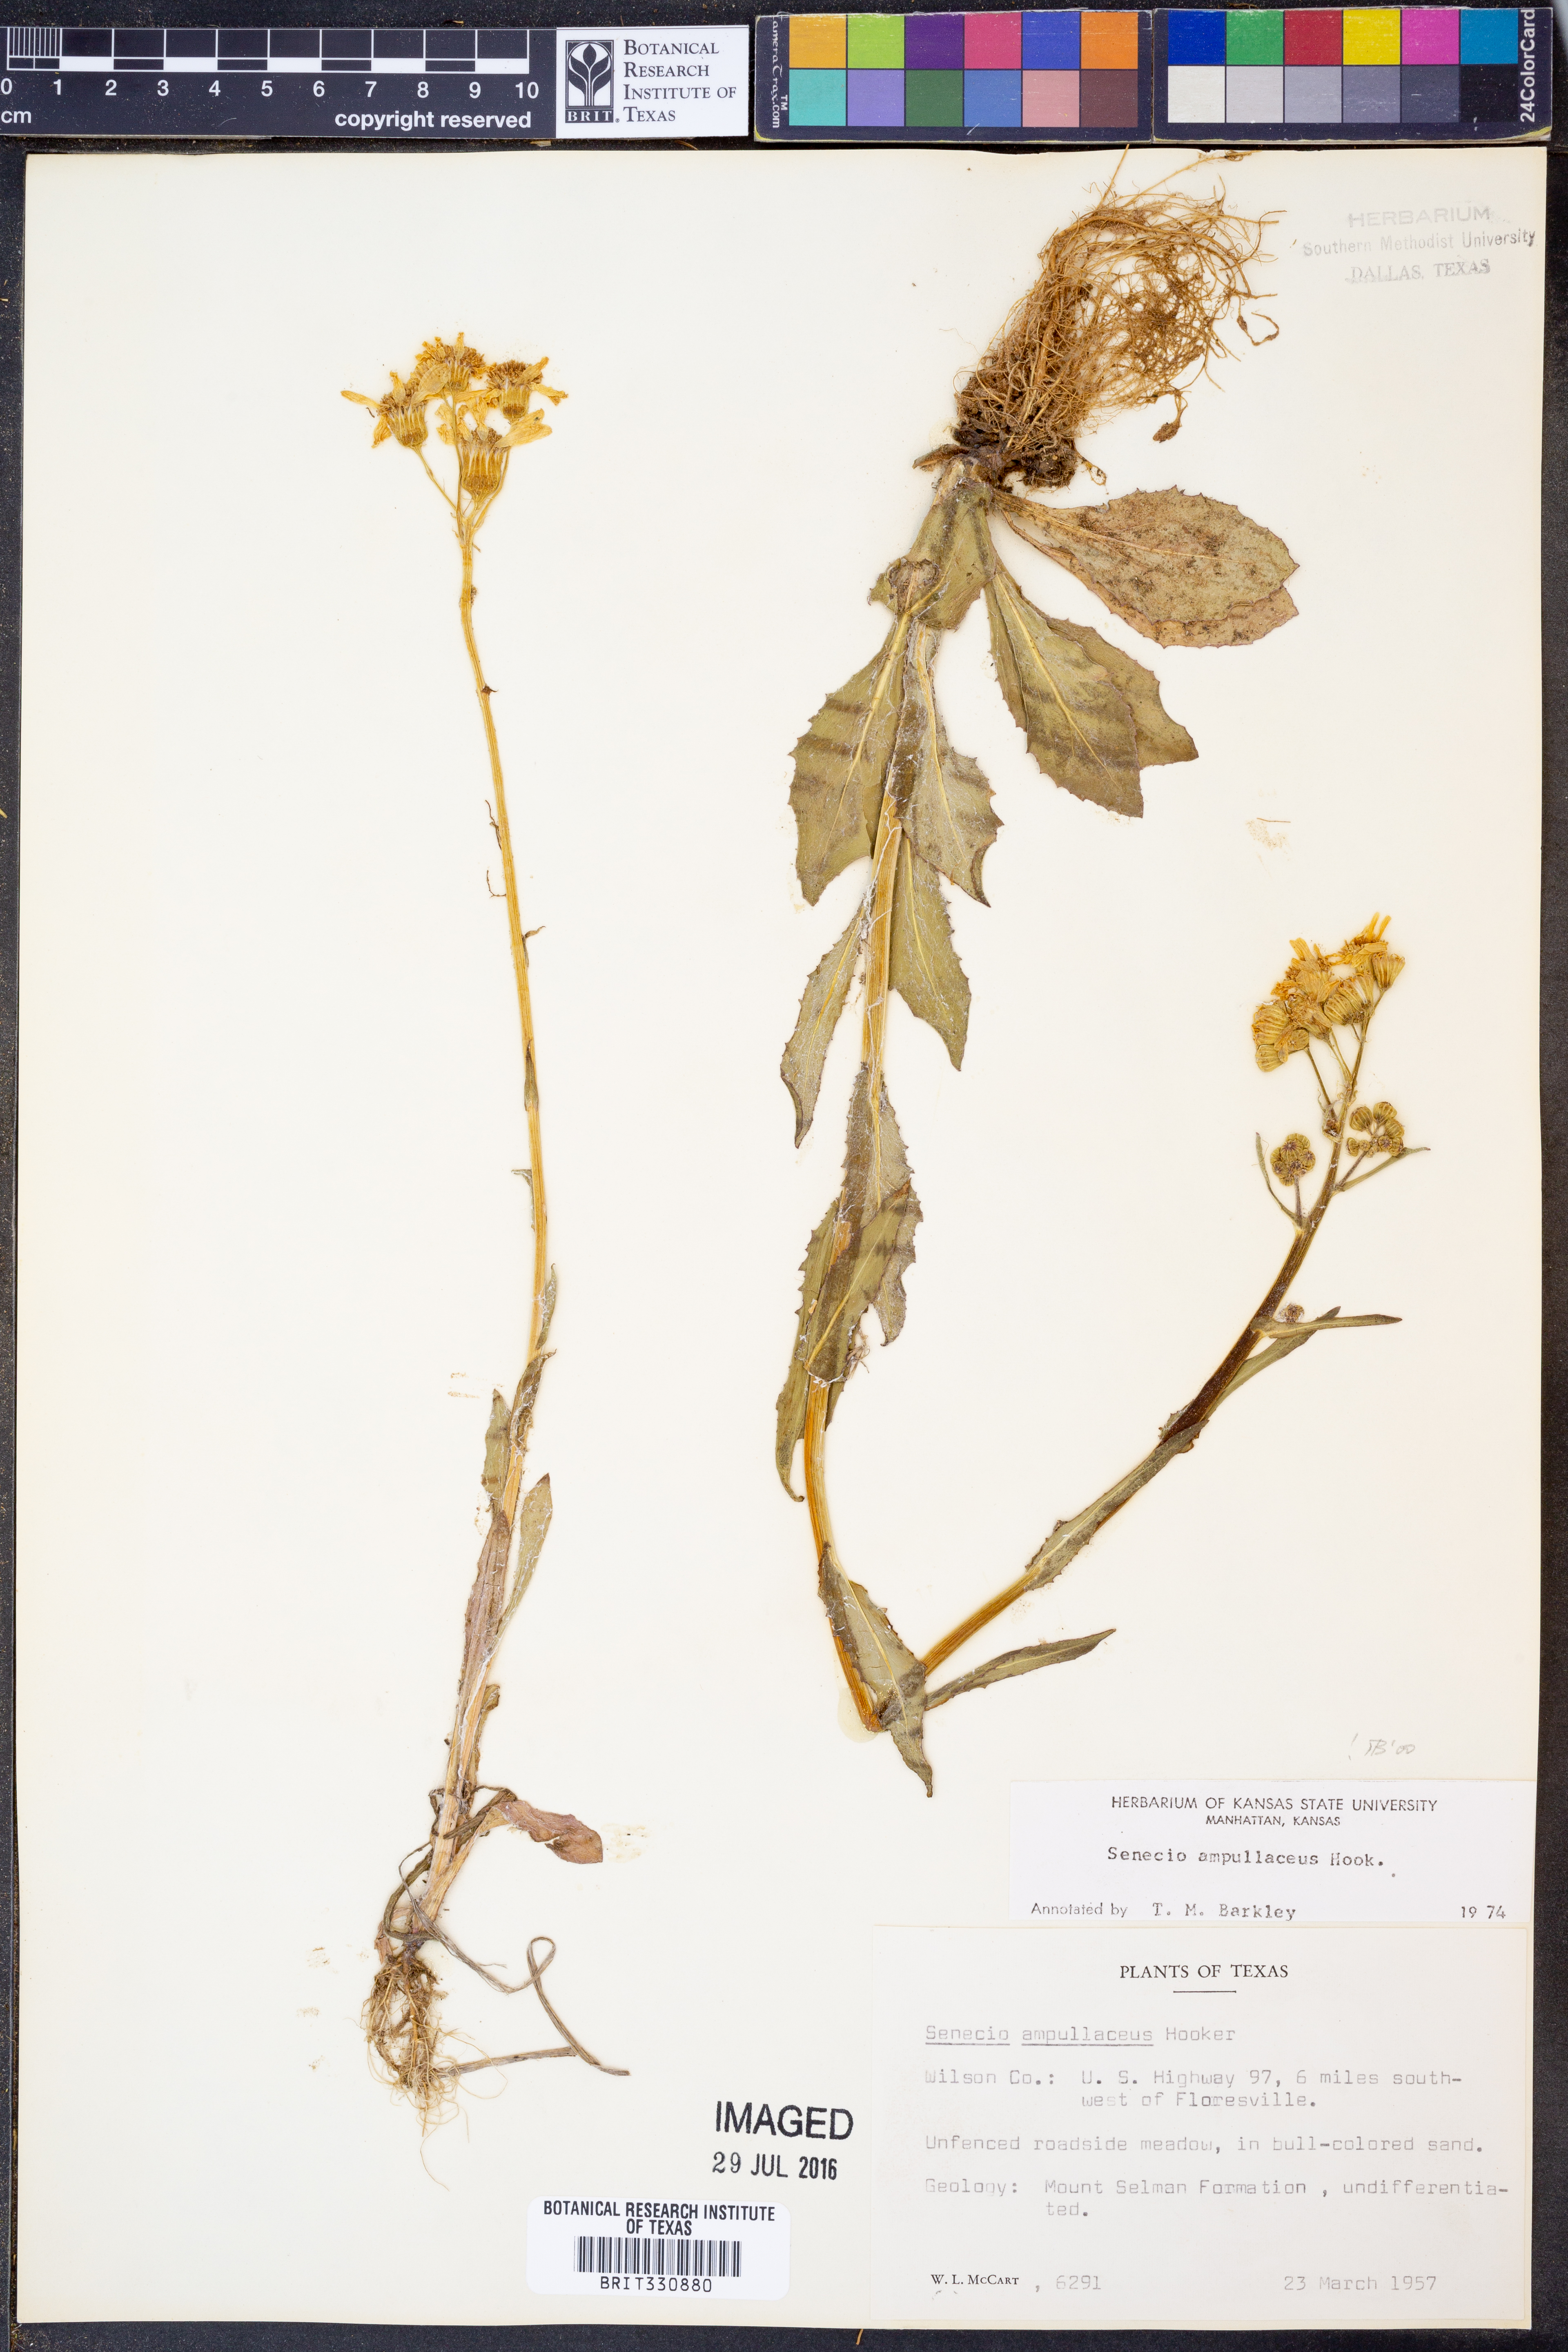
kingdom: Plantae
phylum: Tracheophyta
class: Magnoliopsida
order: Asterales
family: Asteraceae
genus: Senecio
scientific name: Senecio ampullaceus
